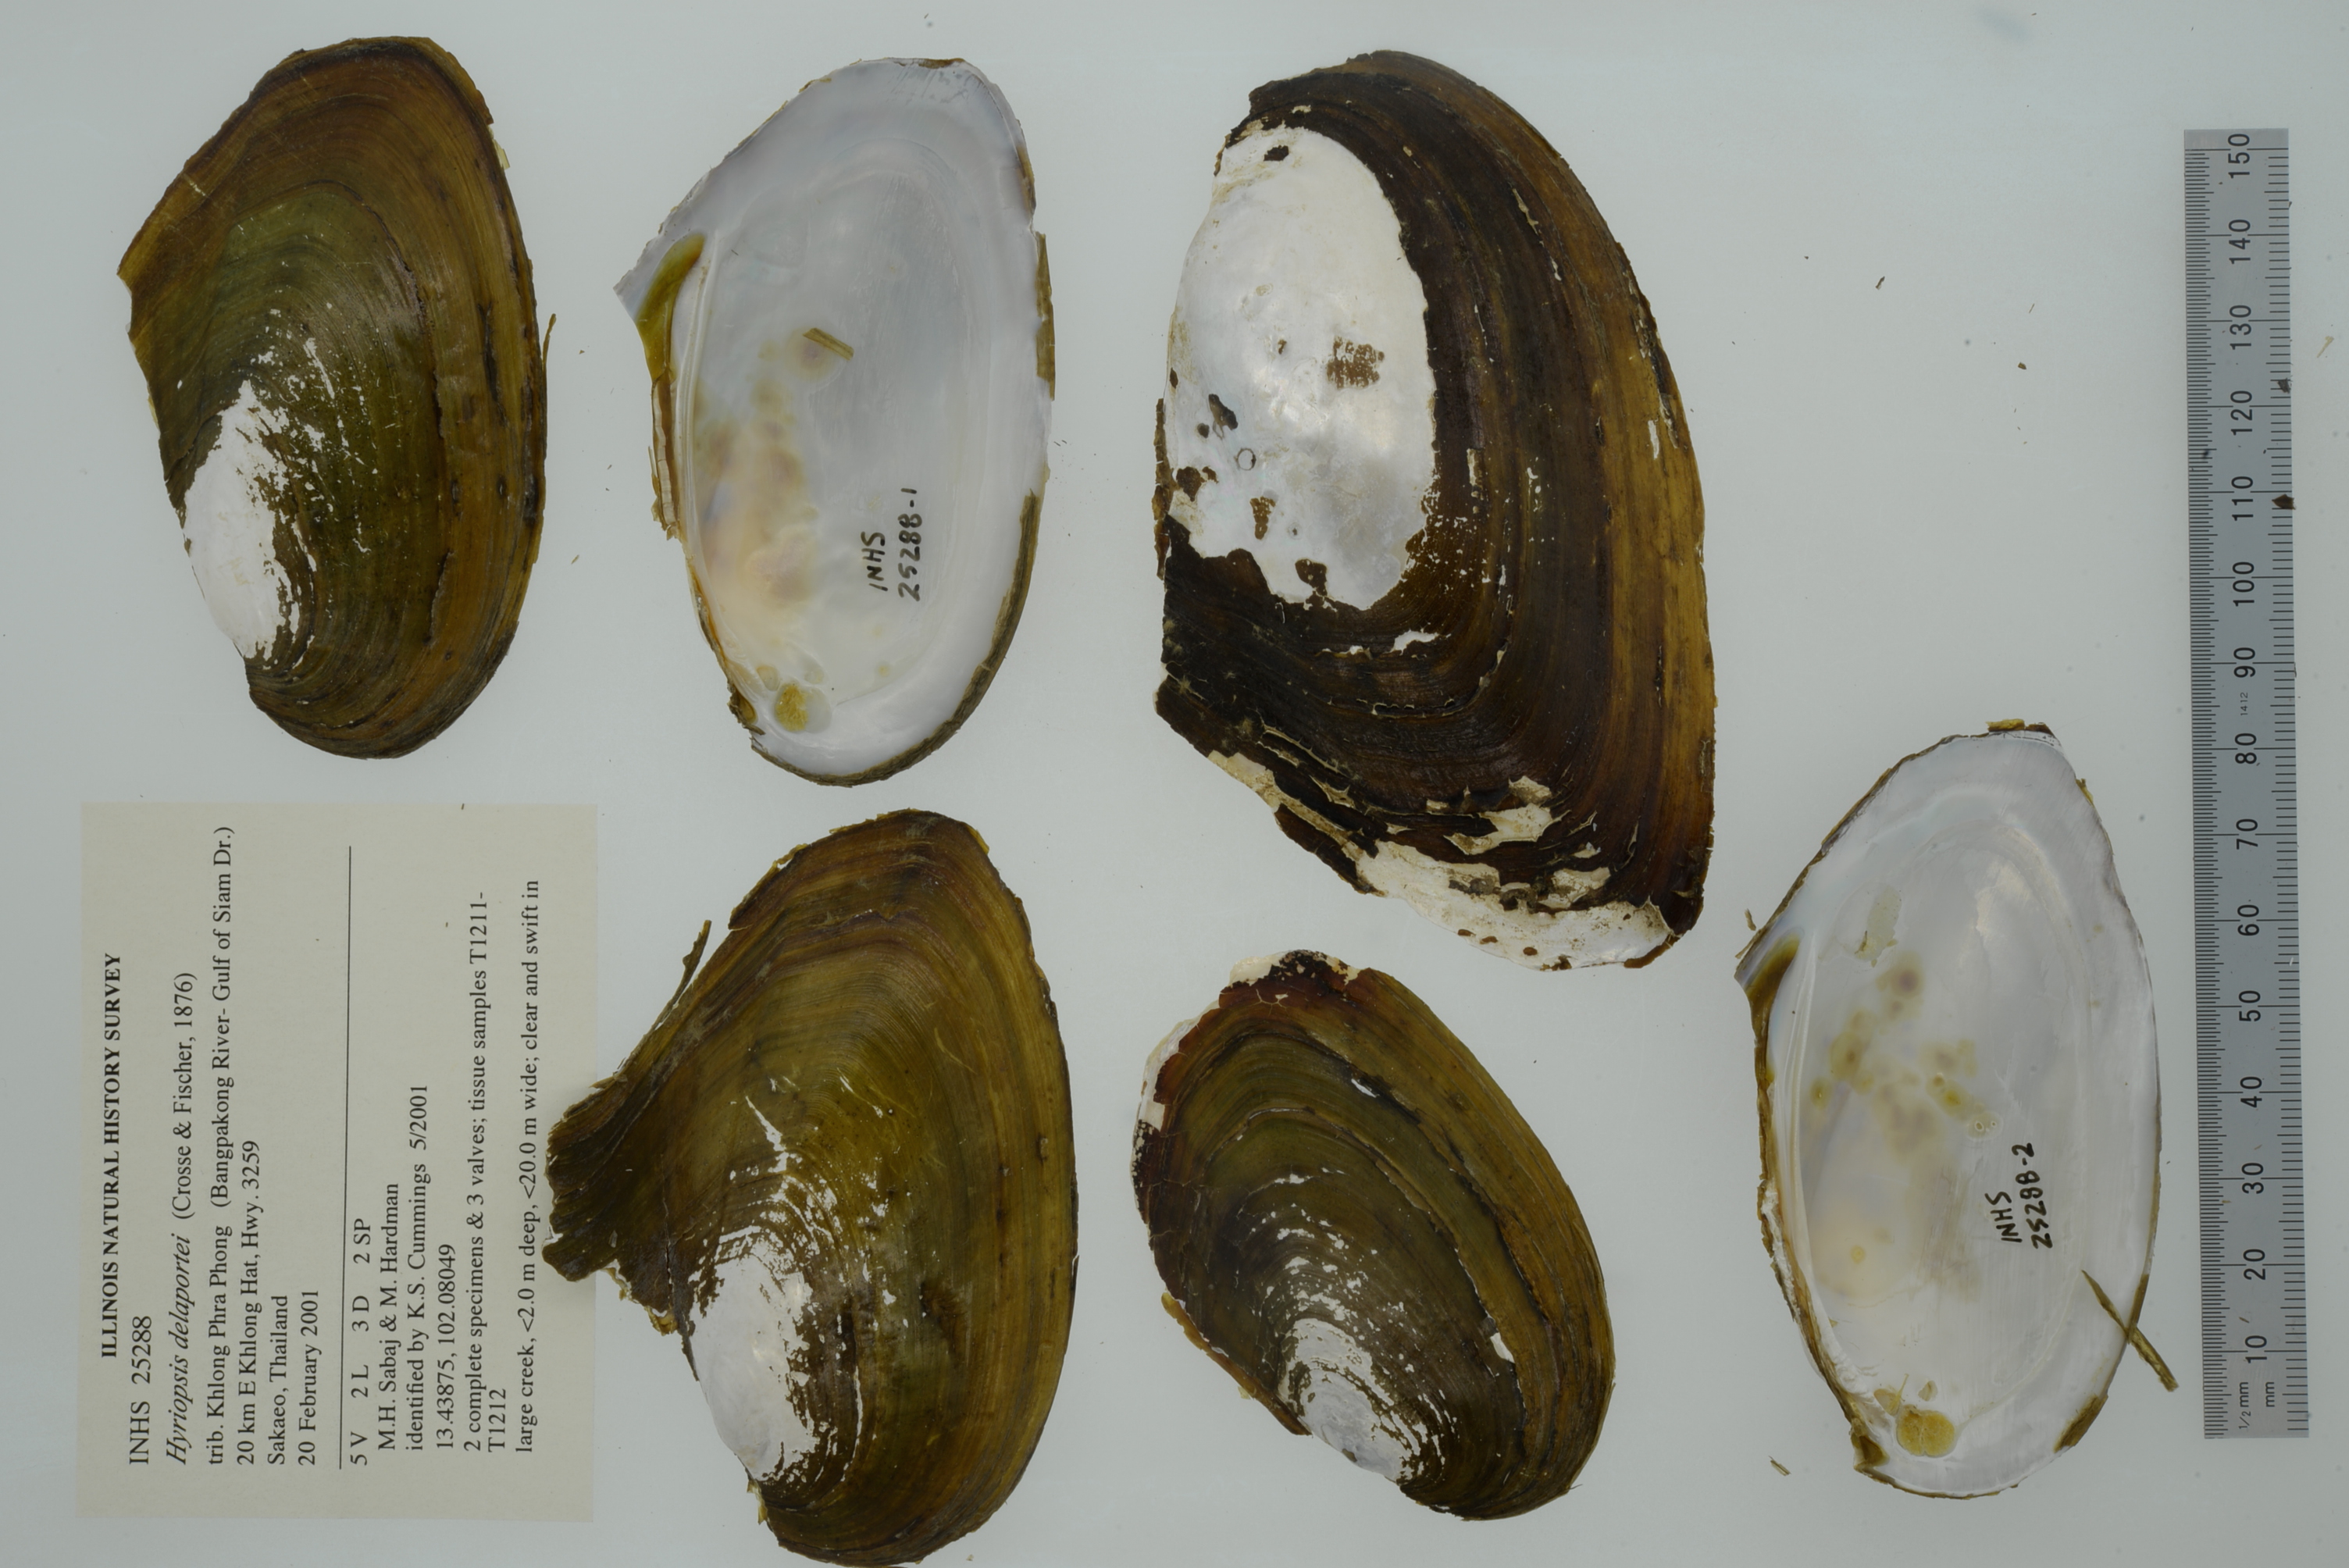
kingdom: Animalia
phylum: Mollusca
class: Bivalvia
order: Unionida
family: Unionidae
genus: Venustaconcha
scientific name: Venustaconcha ellipsiformis
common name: Ellipse
